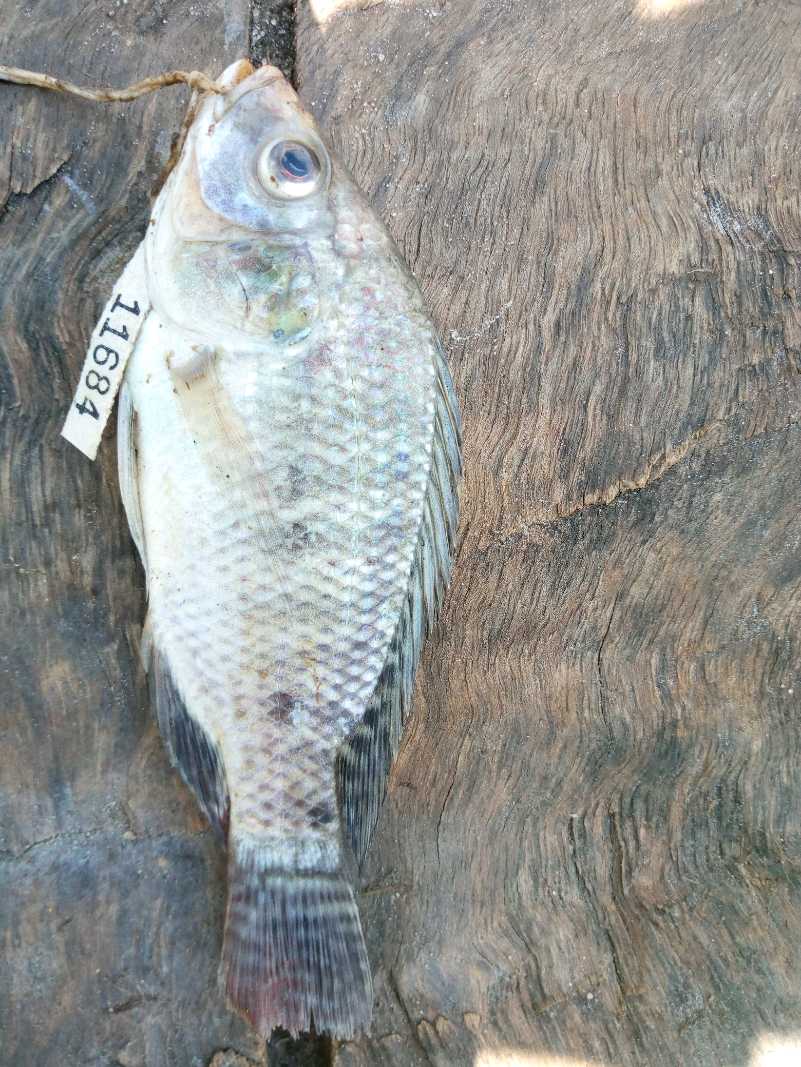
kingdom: Animalia
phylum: Chordata
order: Perciformes
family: Cichlidae
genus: Oreochromis
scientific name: Oreochromis spilurus
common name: Sabaki tilapia
